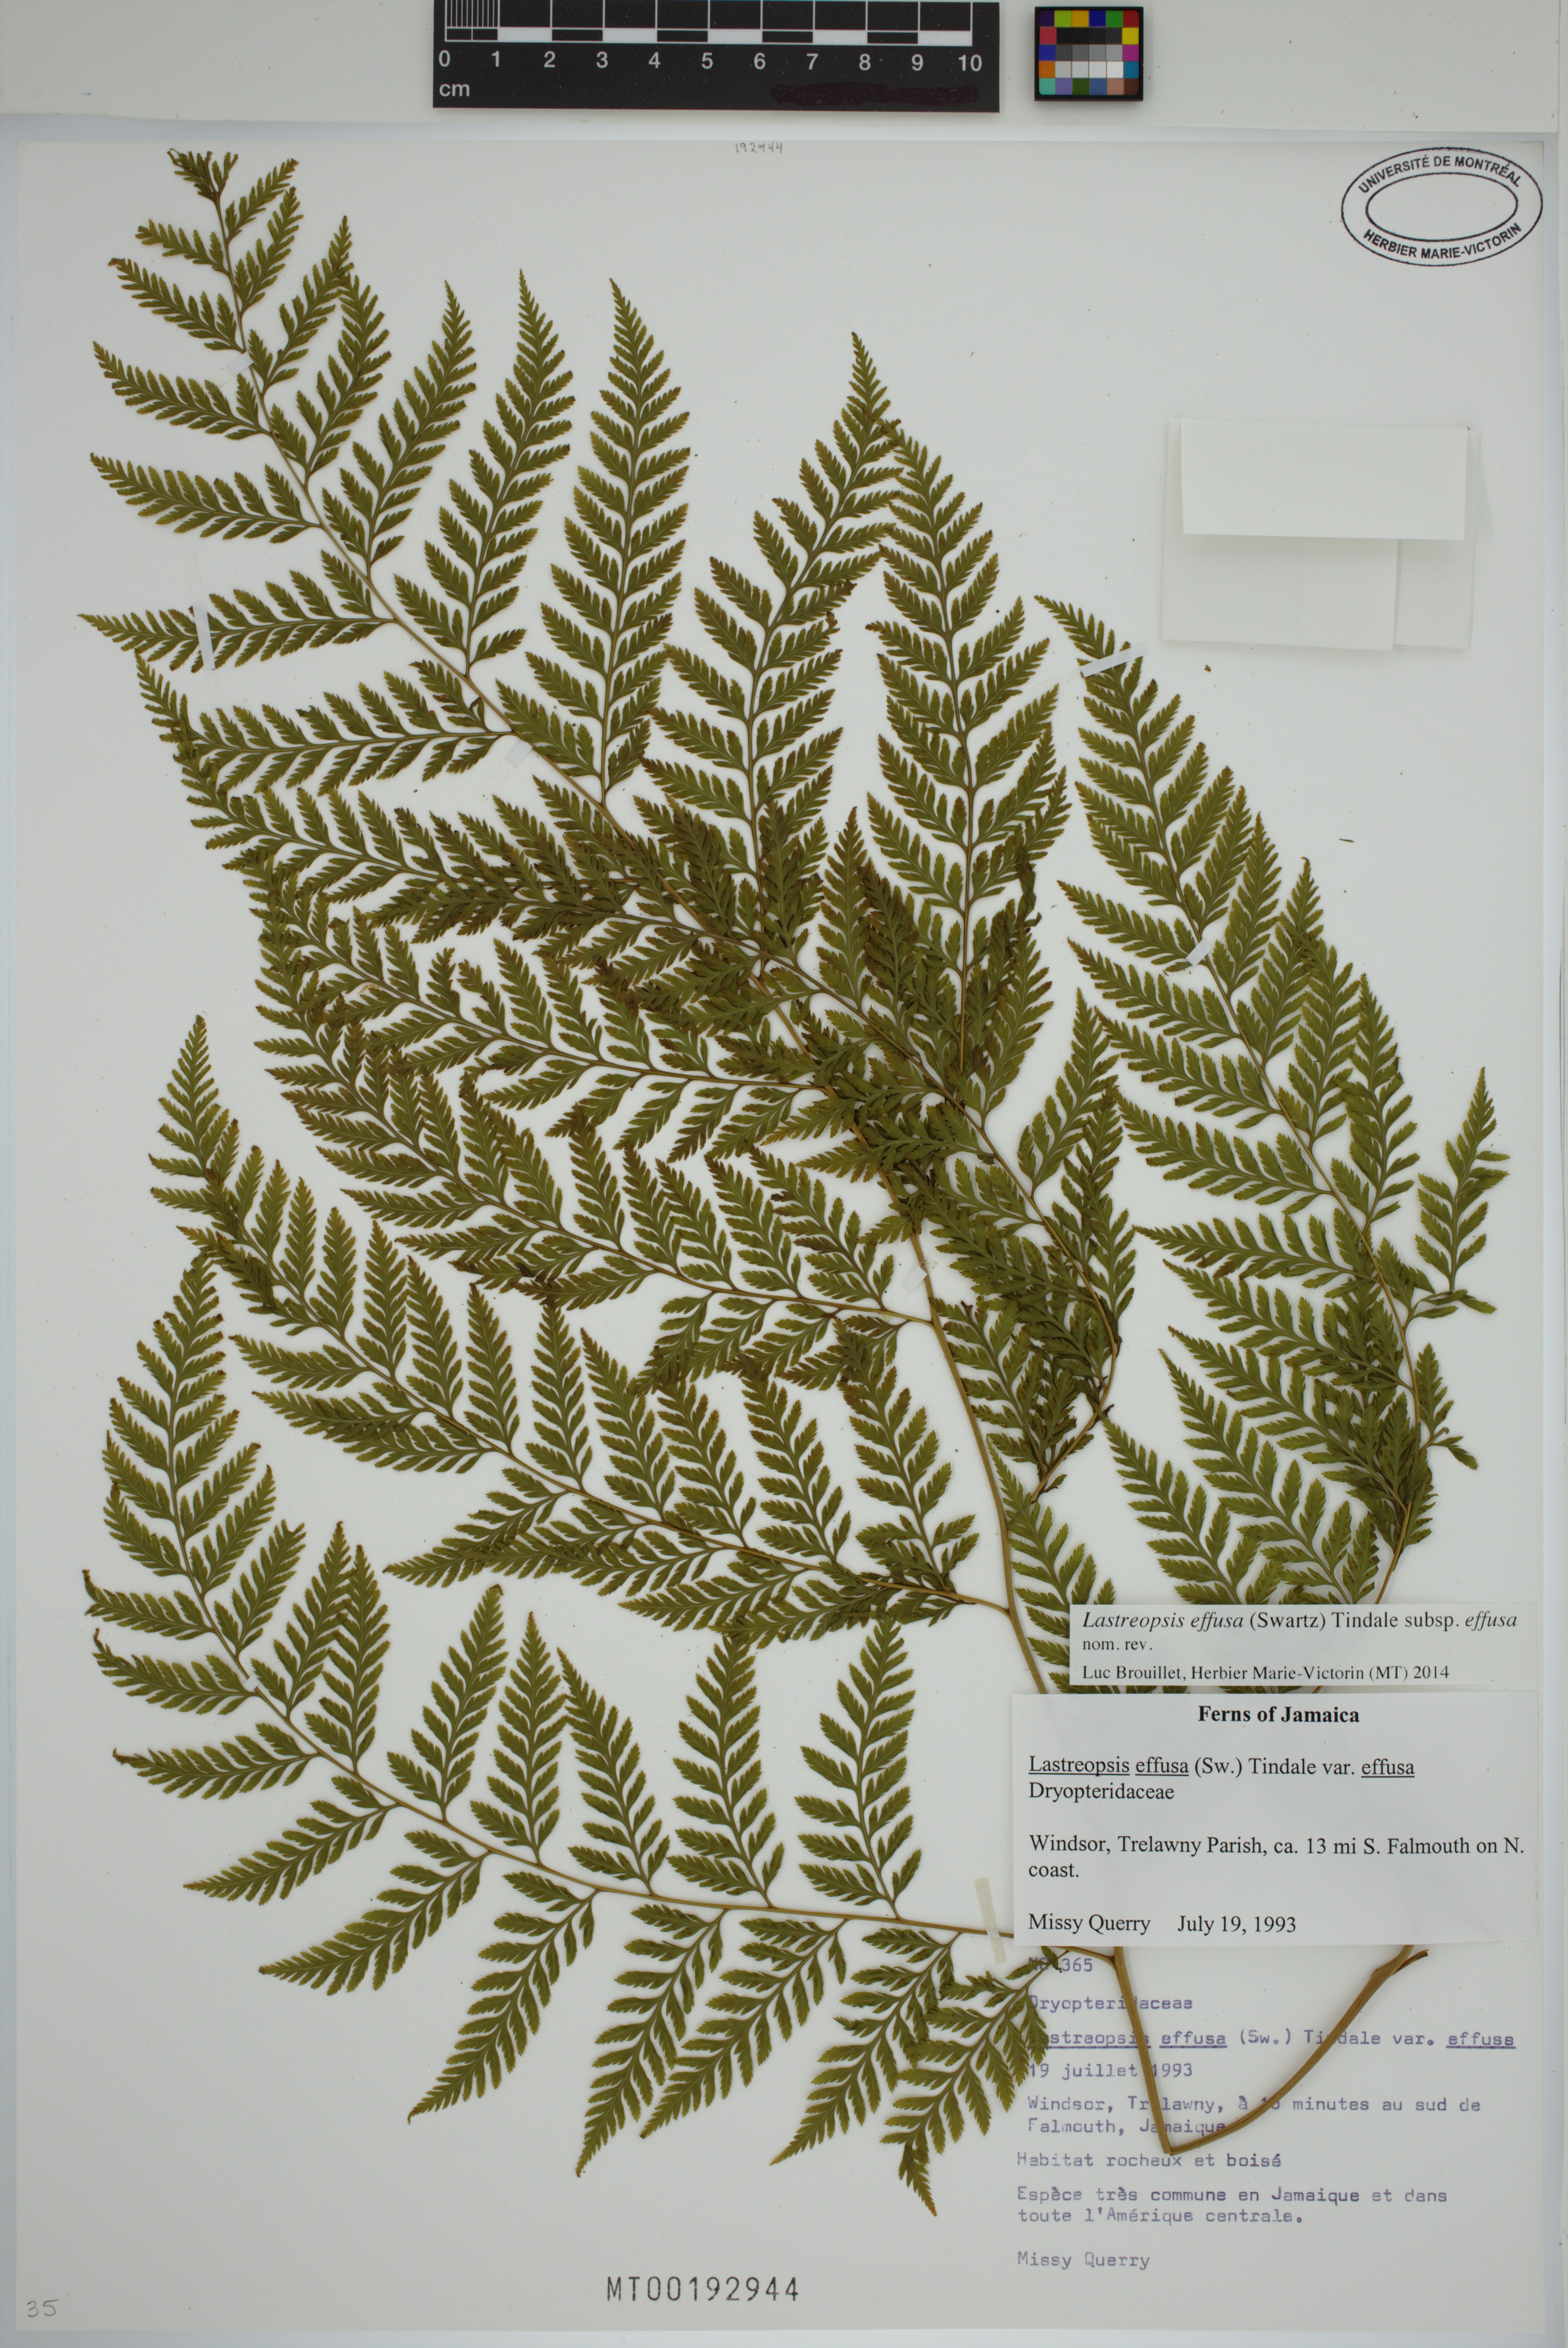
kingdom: Plantae
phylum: Tracheophyta
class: Polypodiopsida
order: Polypodiales
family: Dryopteridaceae
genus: Parapolystichum
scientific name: Parapolystichum effusum
